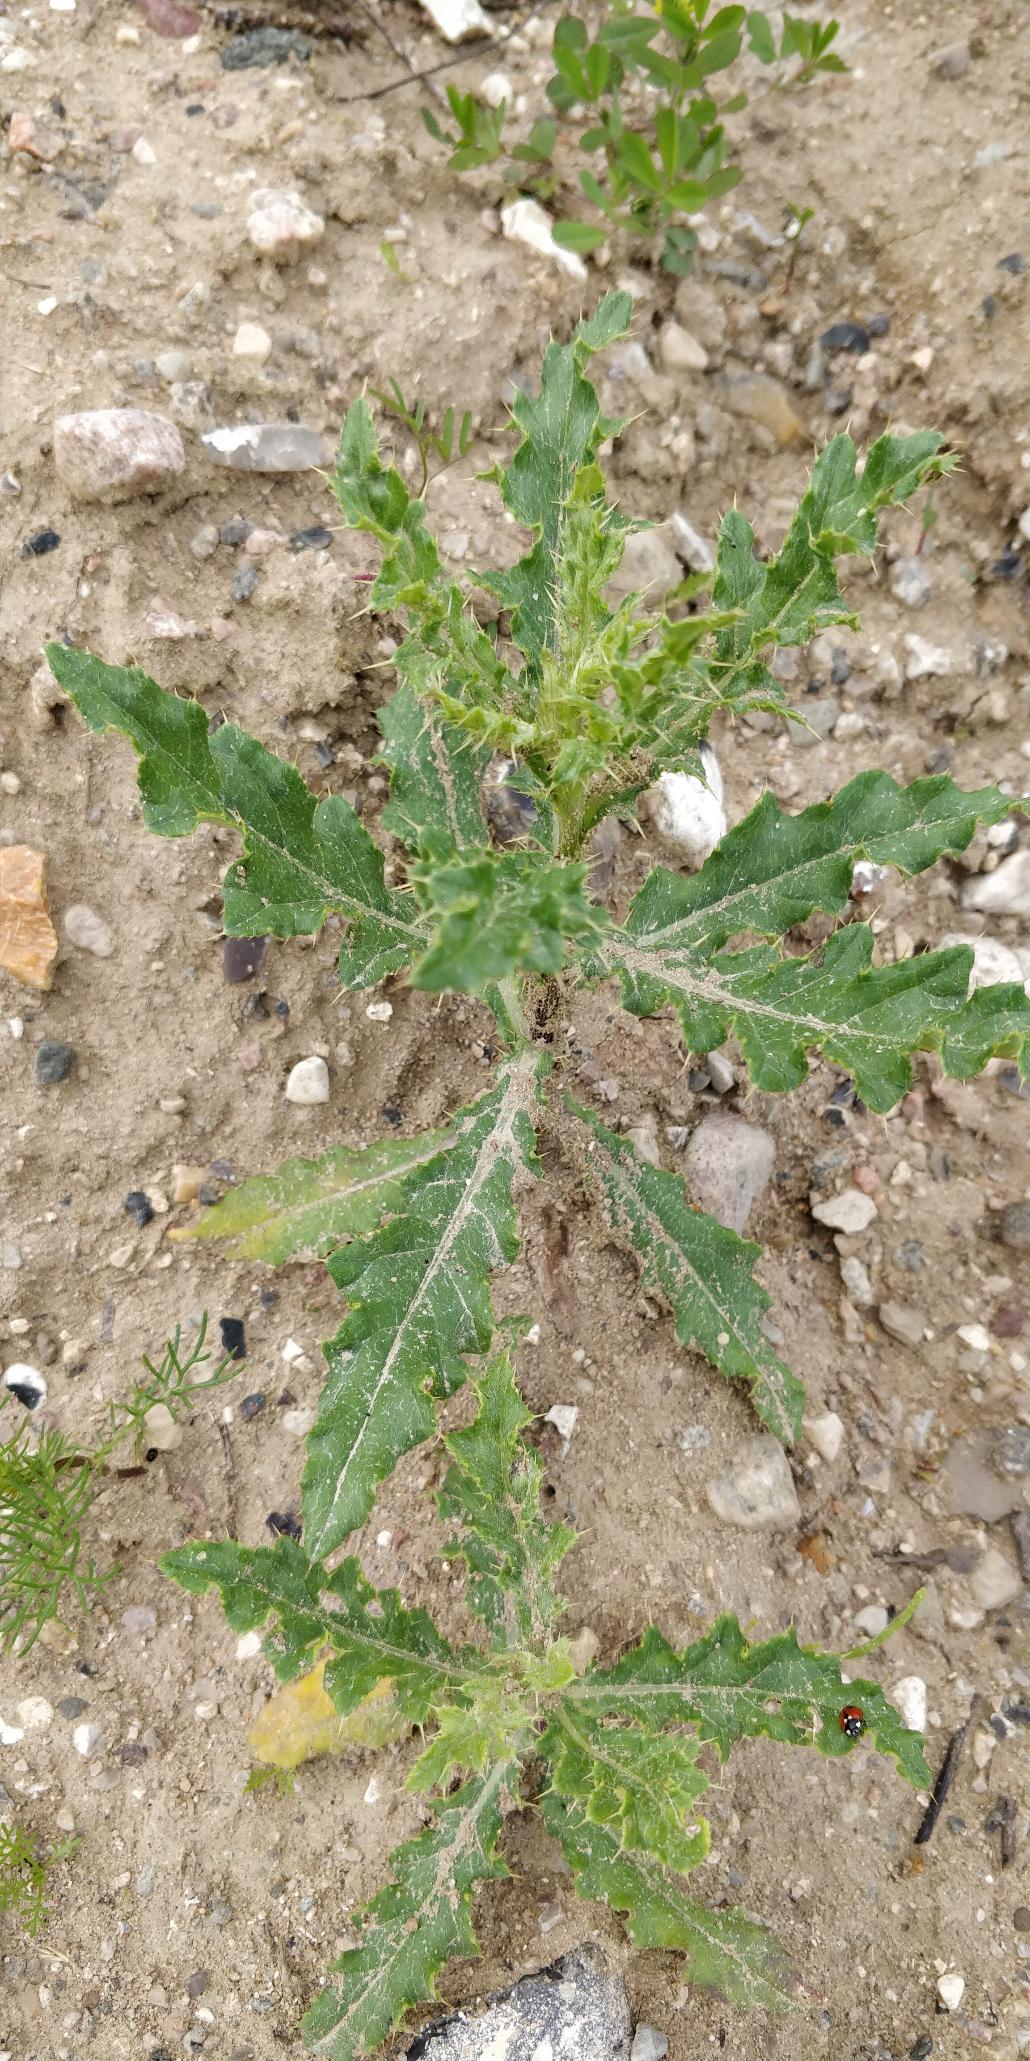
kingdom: Plantae
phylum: Tracheophyta
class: Magnoliopsida
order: Asterales
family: Asteraceae
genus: Cirsium
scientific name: Cirsium arvense
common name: Ager-tidsel
